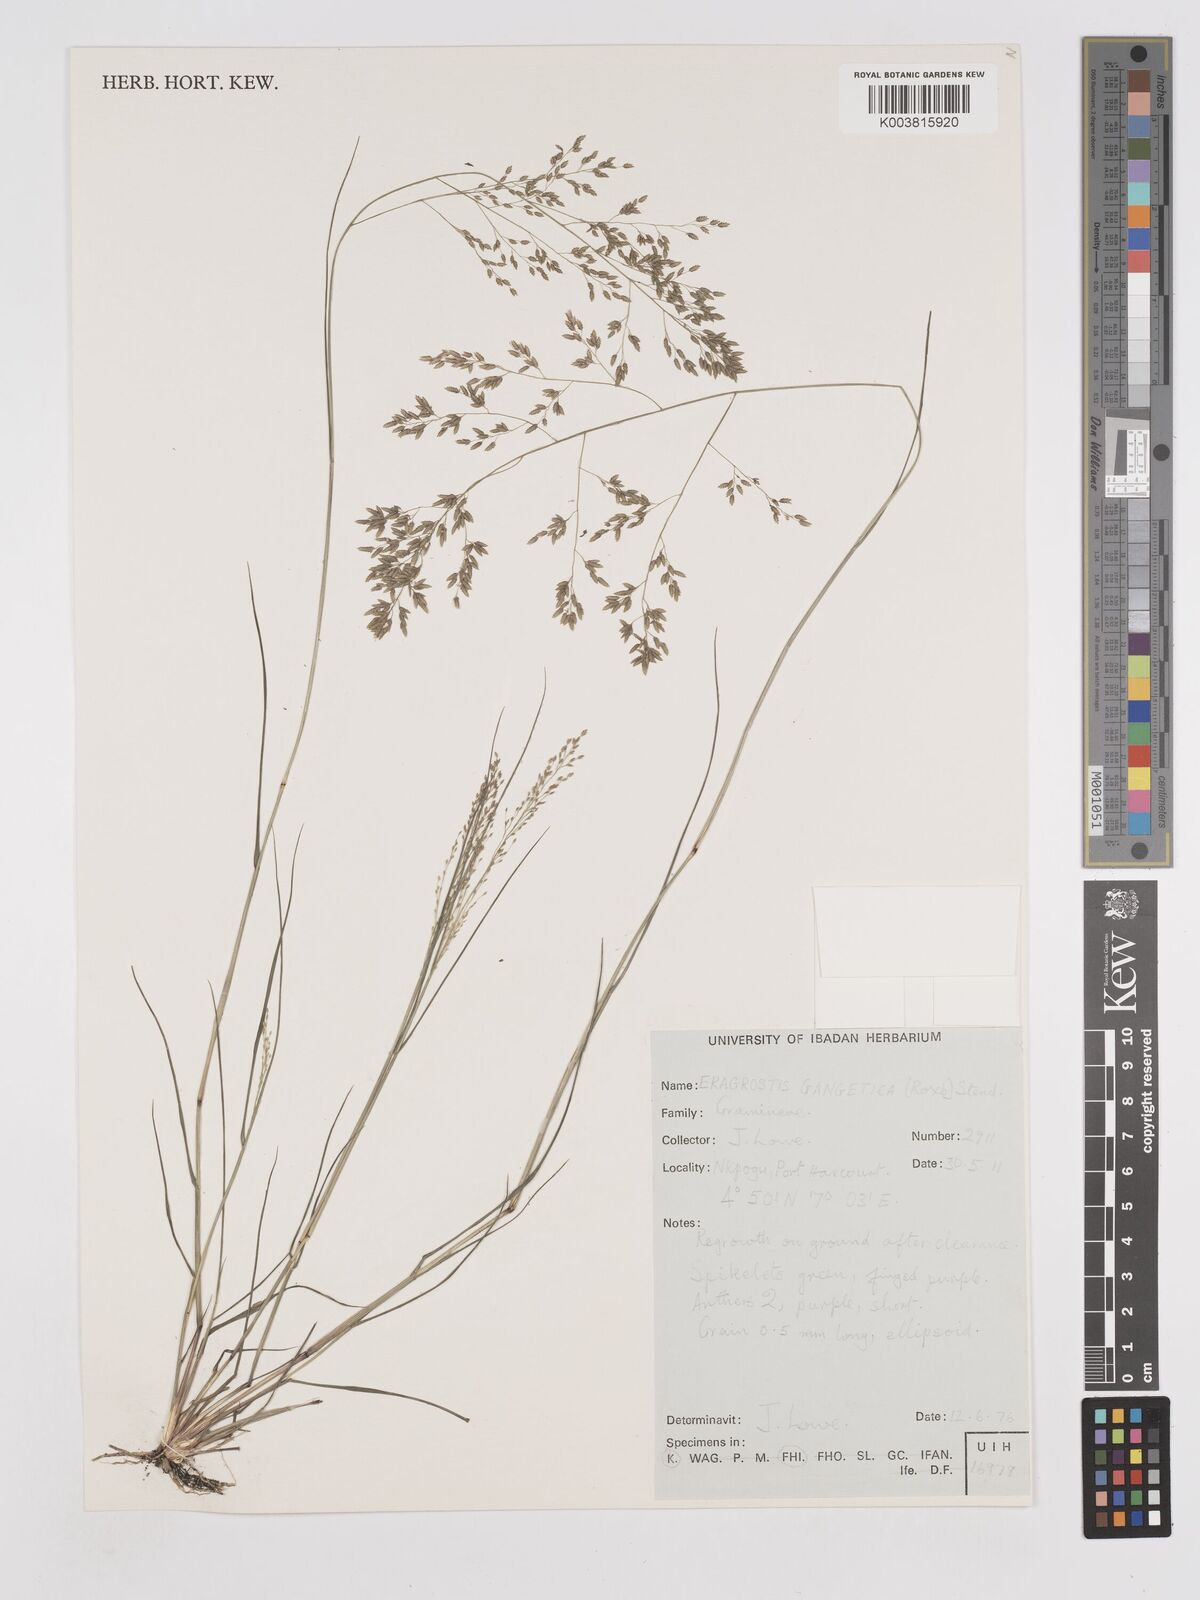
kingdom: Plantae
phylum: Tracheophyta
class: Liliopsida
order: Poales
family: Poaceae
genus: Eragrostis
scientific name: Eragrostis gangetica
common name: Slimflower lovegrass
